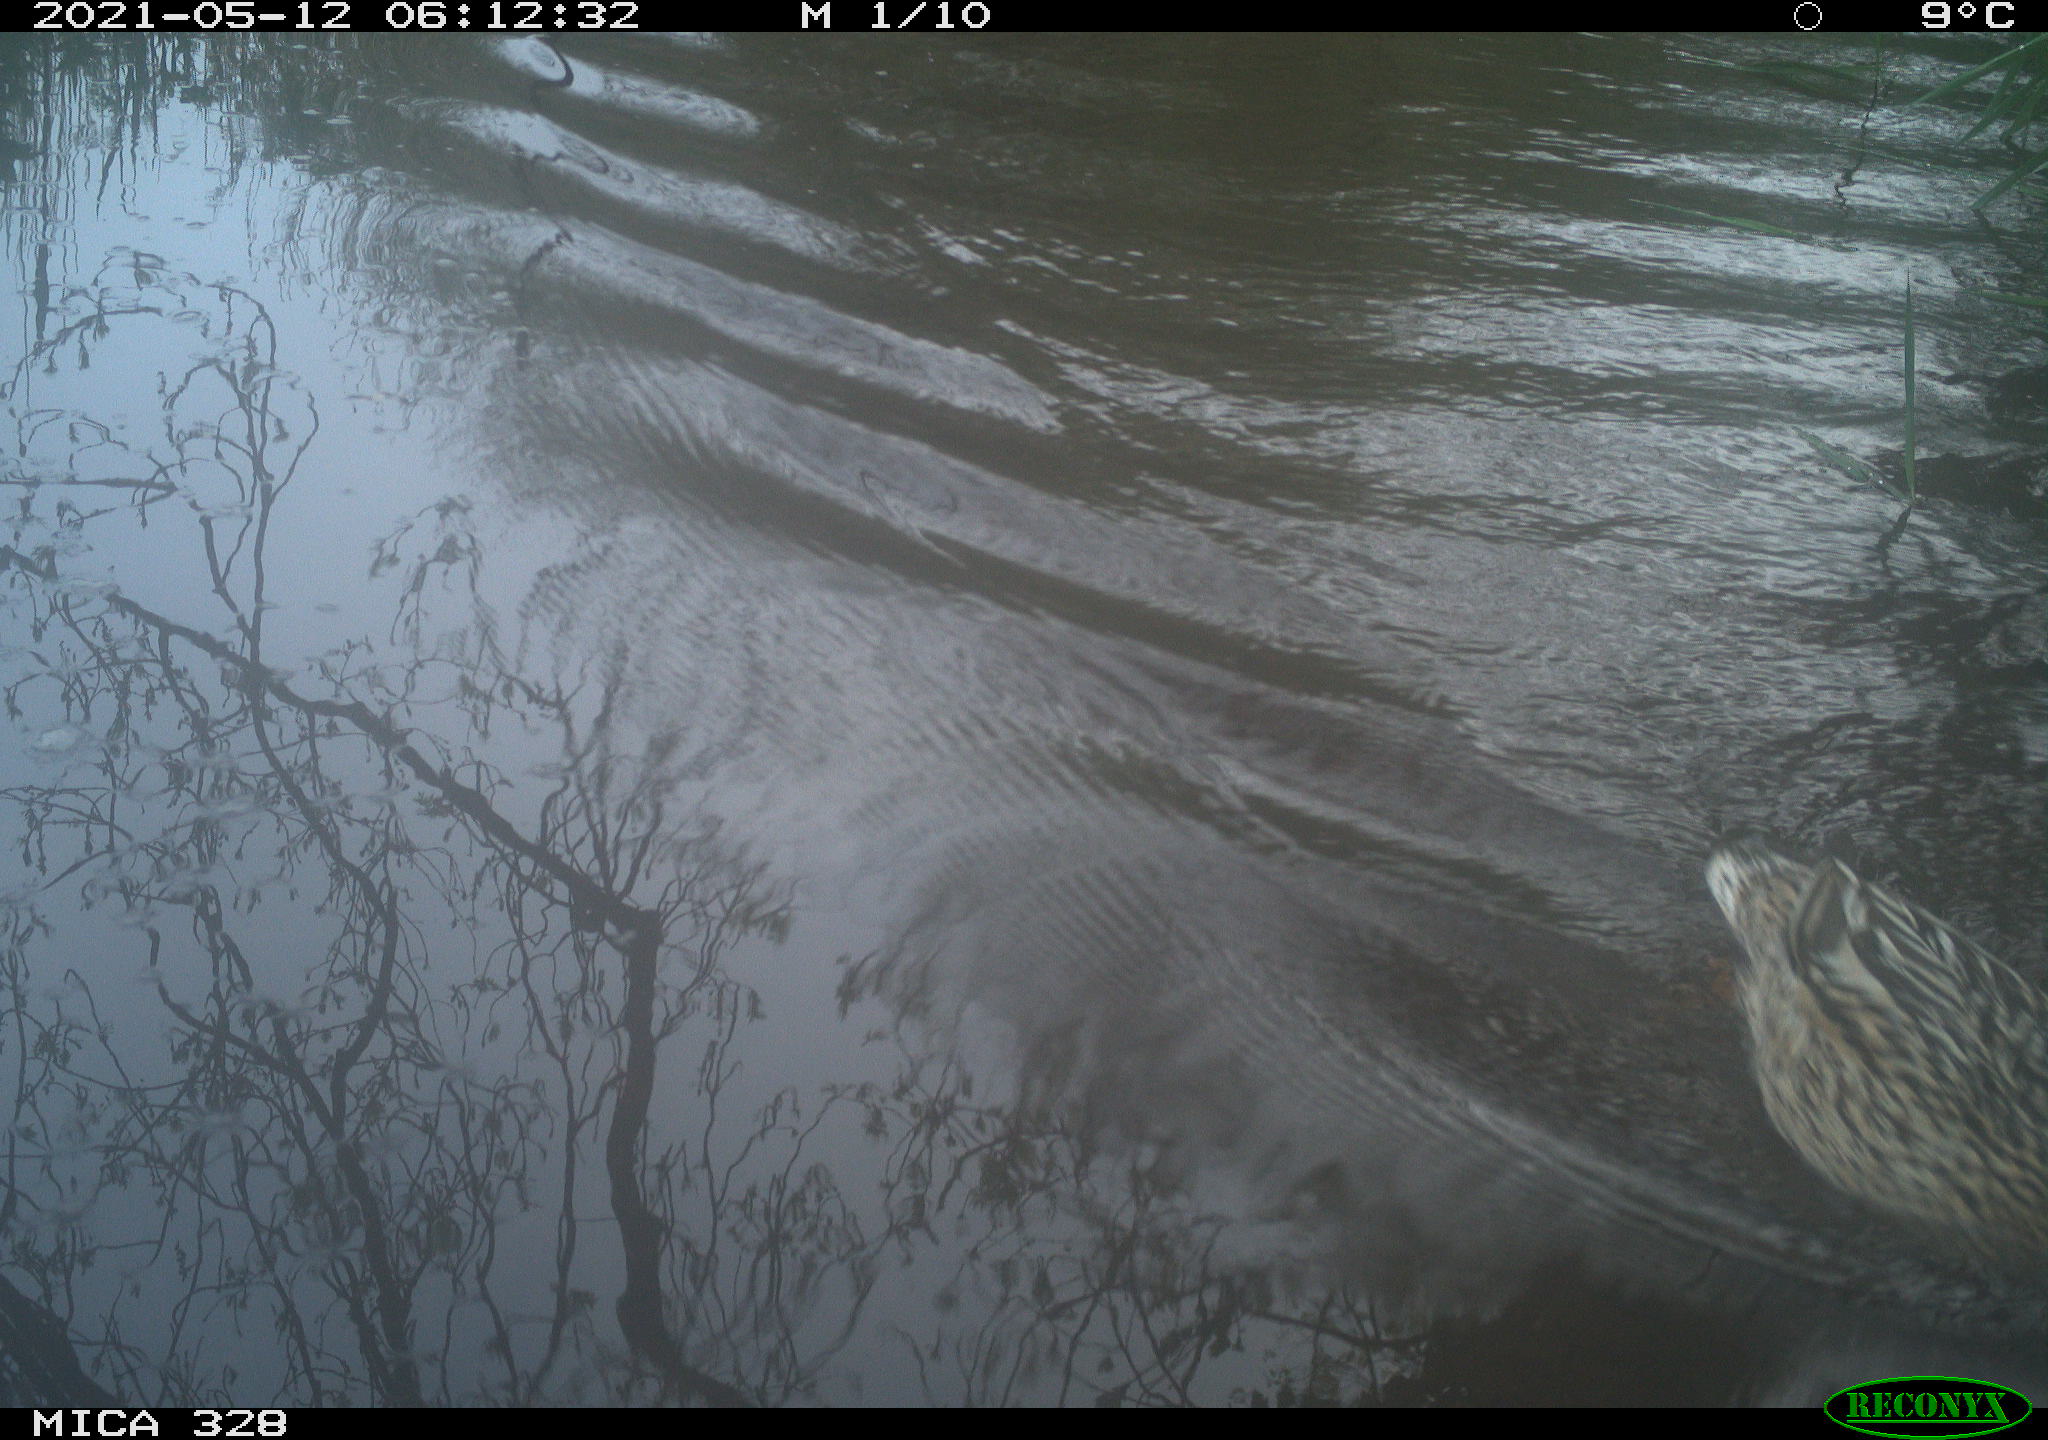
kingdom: Animalia
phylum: Chordata
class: Aves
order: Anseriformes
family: Anatidae
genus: Anas
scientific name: Anas platyrhynchos
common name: Mallard
